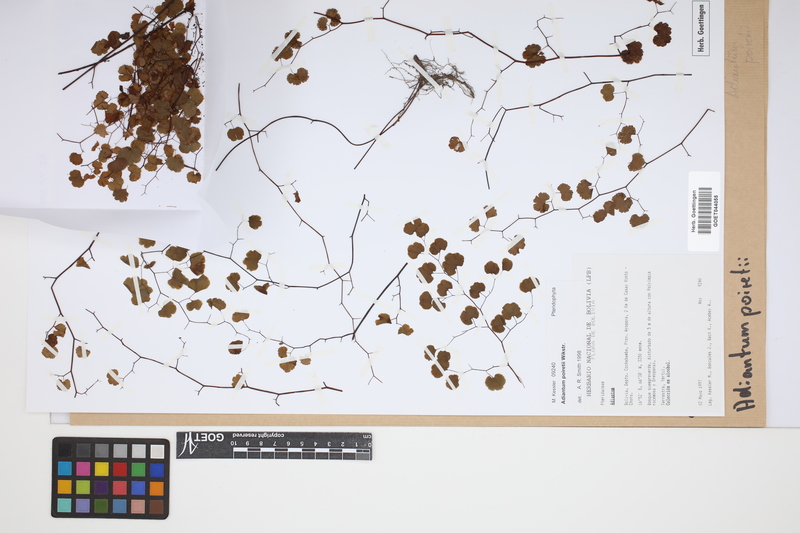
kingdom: Plantae
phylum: Tracheophyta
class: Polypodiopsida
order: Polypodiales
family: Pteridaceae
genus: Adiantum
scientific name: Adiantum poiretii
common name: Mexican maidenhair
